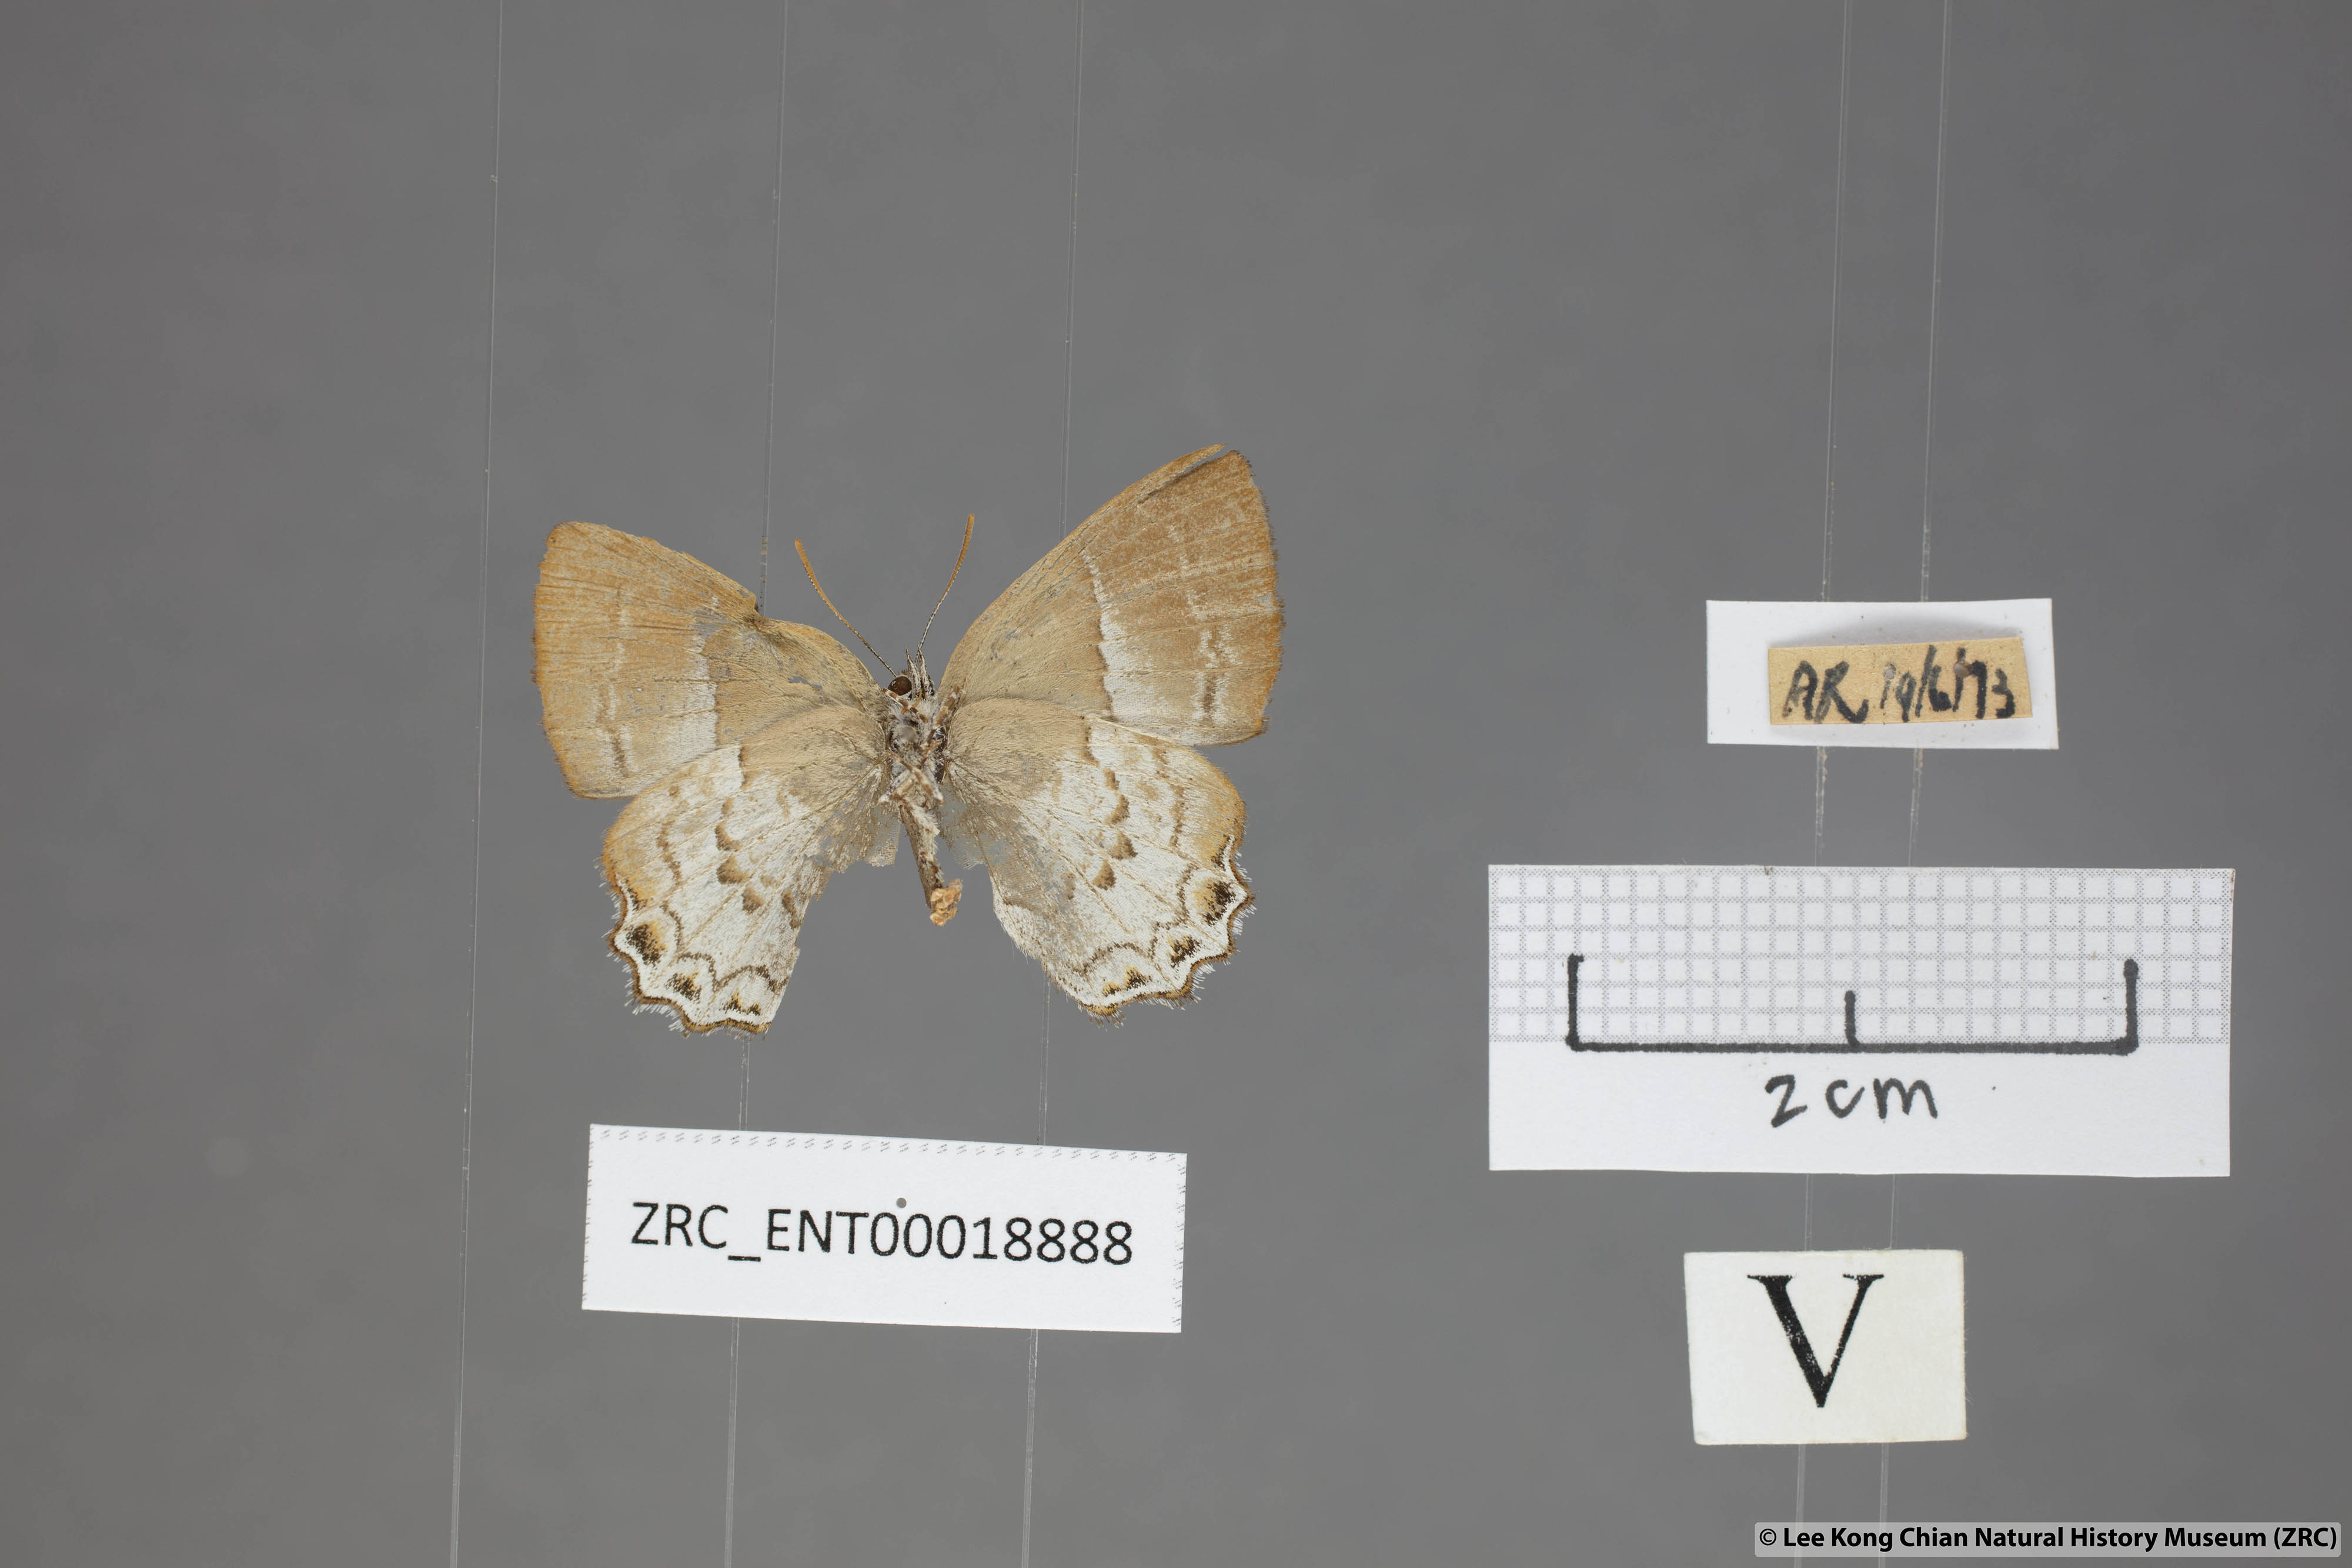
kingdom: Animalia
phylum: Arthropoda
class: Insecta
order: Lepidoptera
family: Lycaenidae
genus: Simiskina
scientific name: Simiskina pheretia
